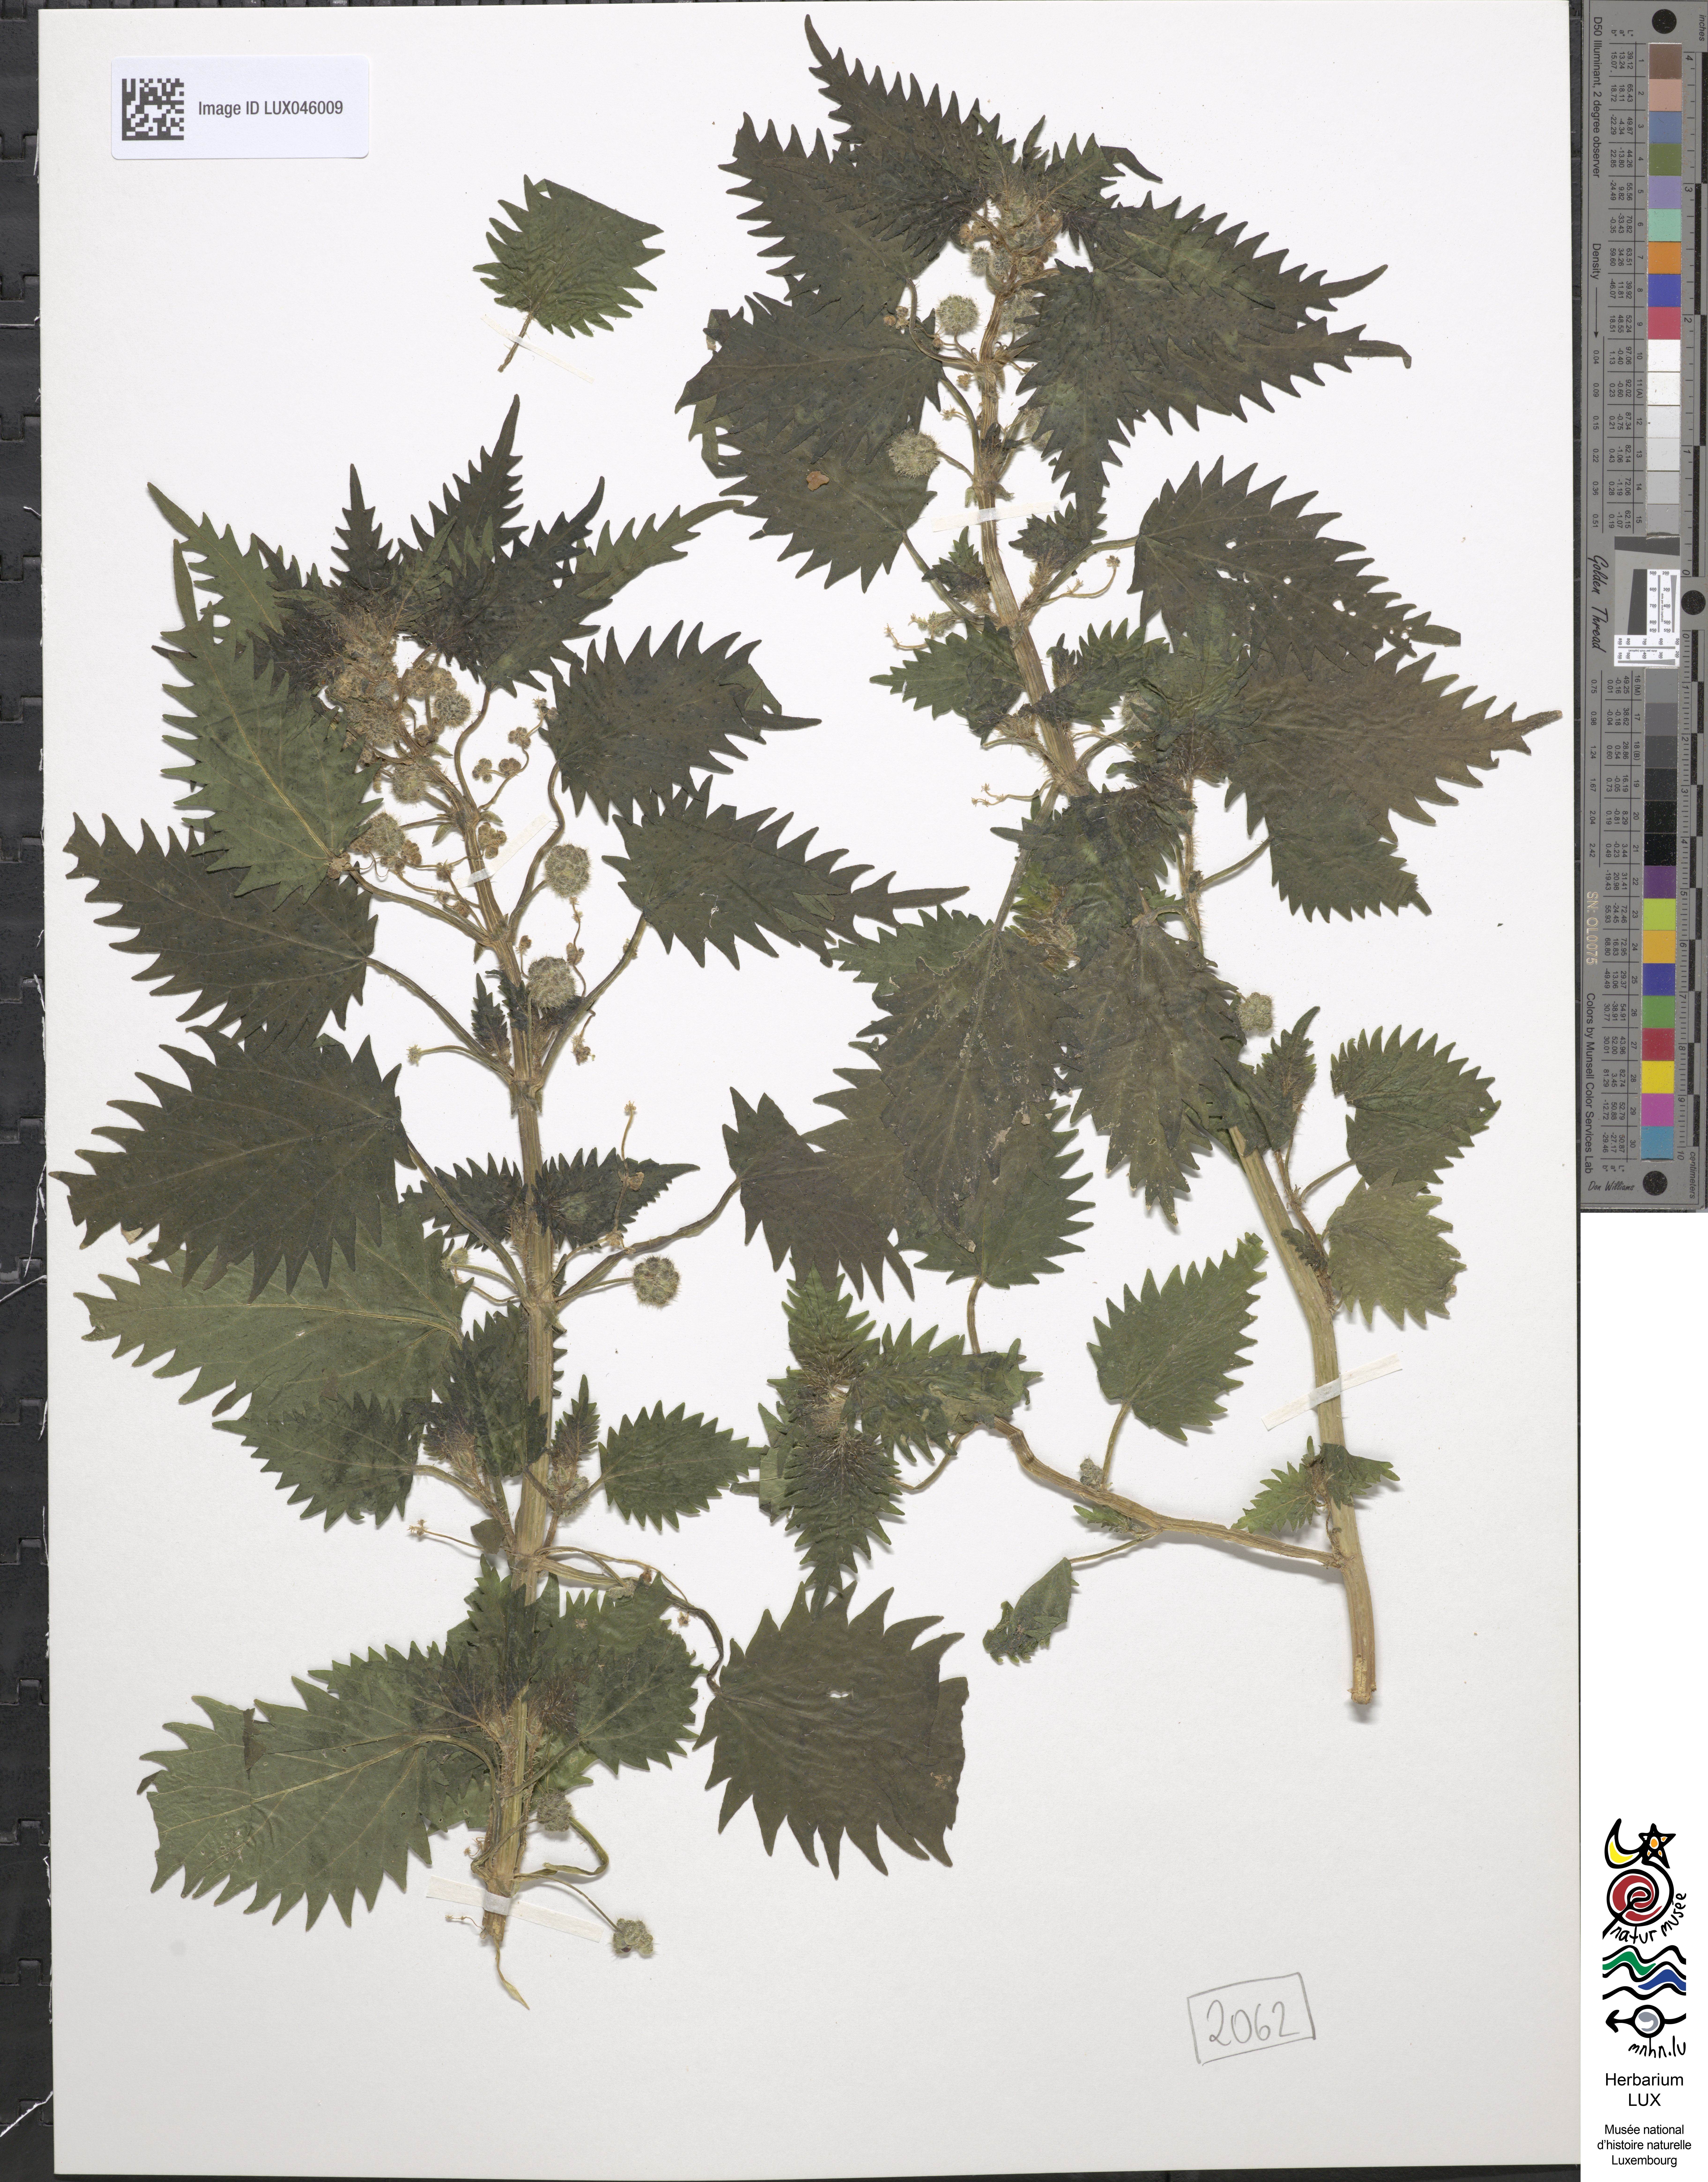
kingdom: Plantae
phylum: Tracheophyta
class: Magnoliopsida
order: Rosales
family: Urticaceae
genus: Urtica
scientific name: Urtica pilulifera
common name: Roman nettle
